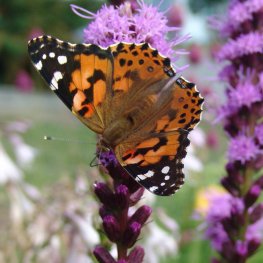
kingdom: Animalia
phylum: Arthropoda
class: Insecta
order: Lepidoptera
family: Nymphalidae
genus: Vanessa
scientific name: Vanessa cardui
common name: Painted Lady
